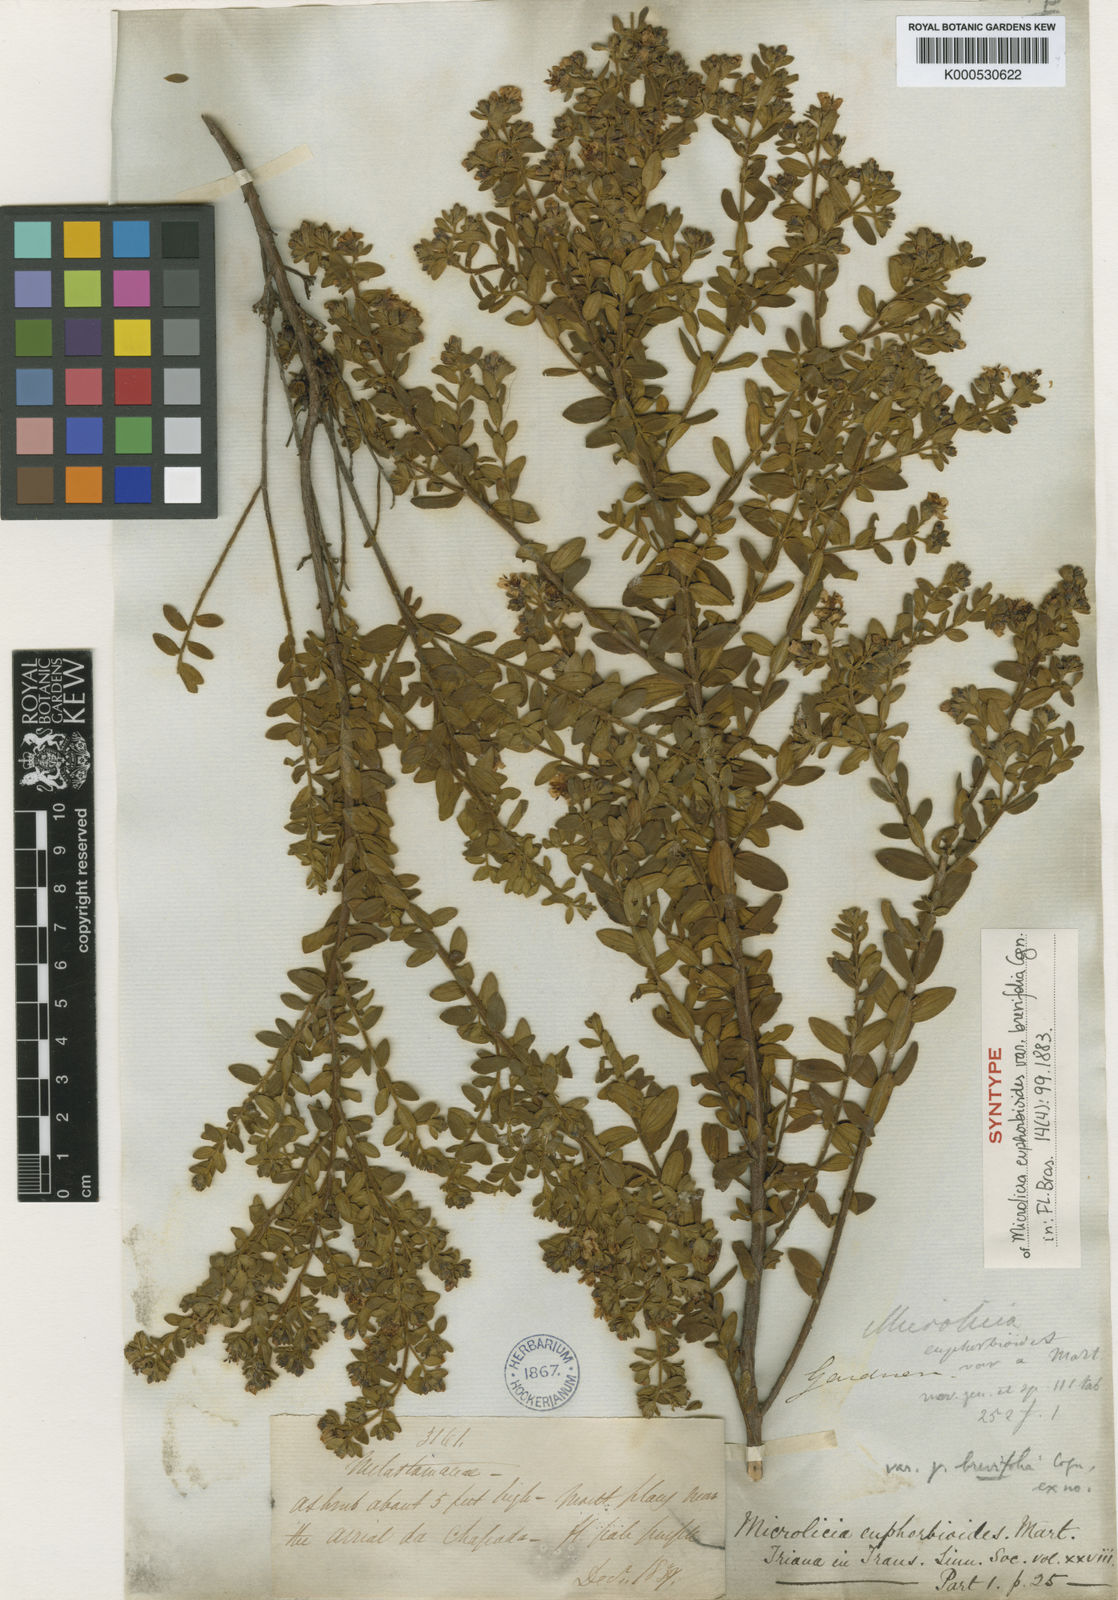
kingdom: Plantae
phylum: Tracheophyta
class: Magnoliopsida
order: Myrtales
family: Melastomataceae
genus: Microlicia
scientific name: Microlicia euphorbioides
